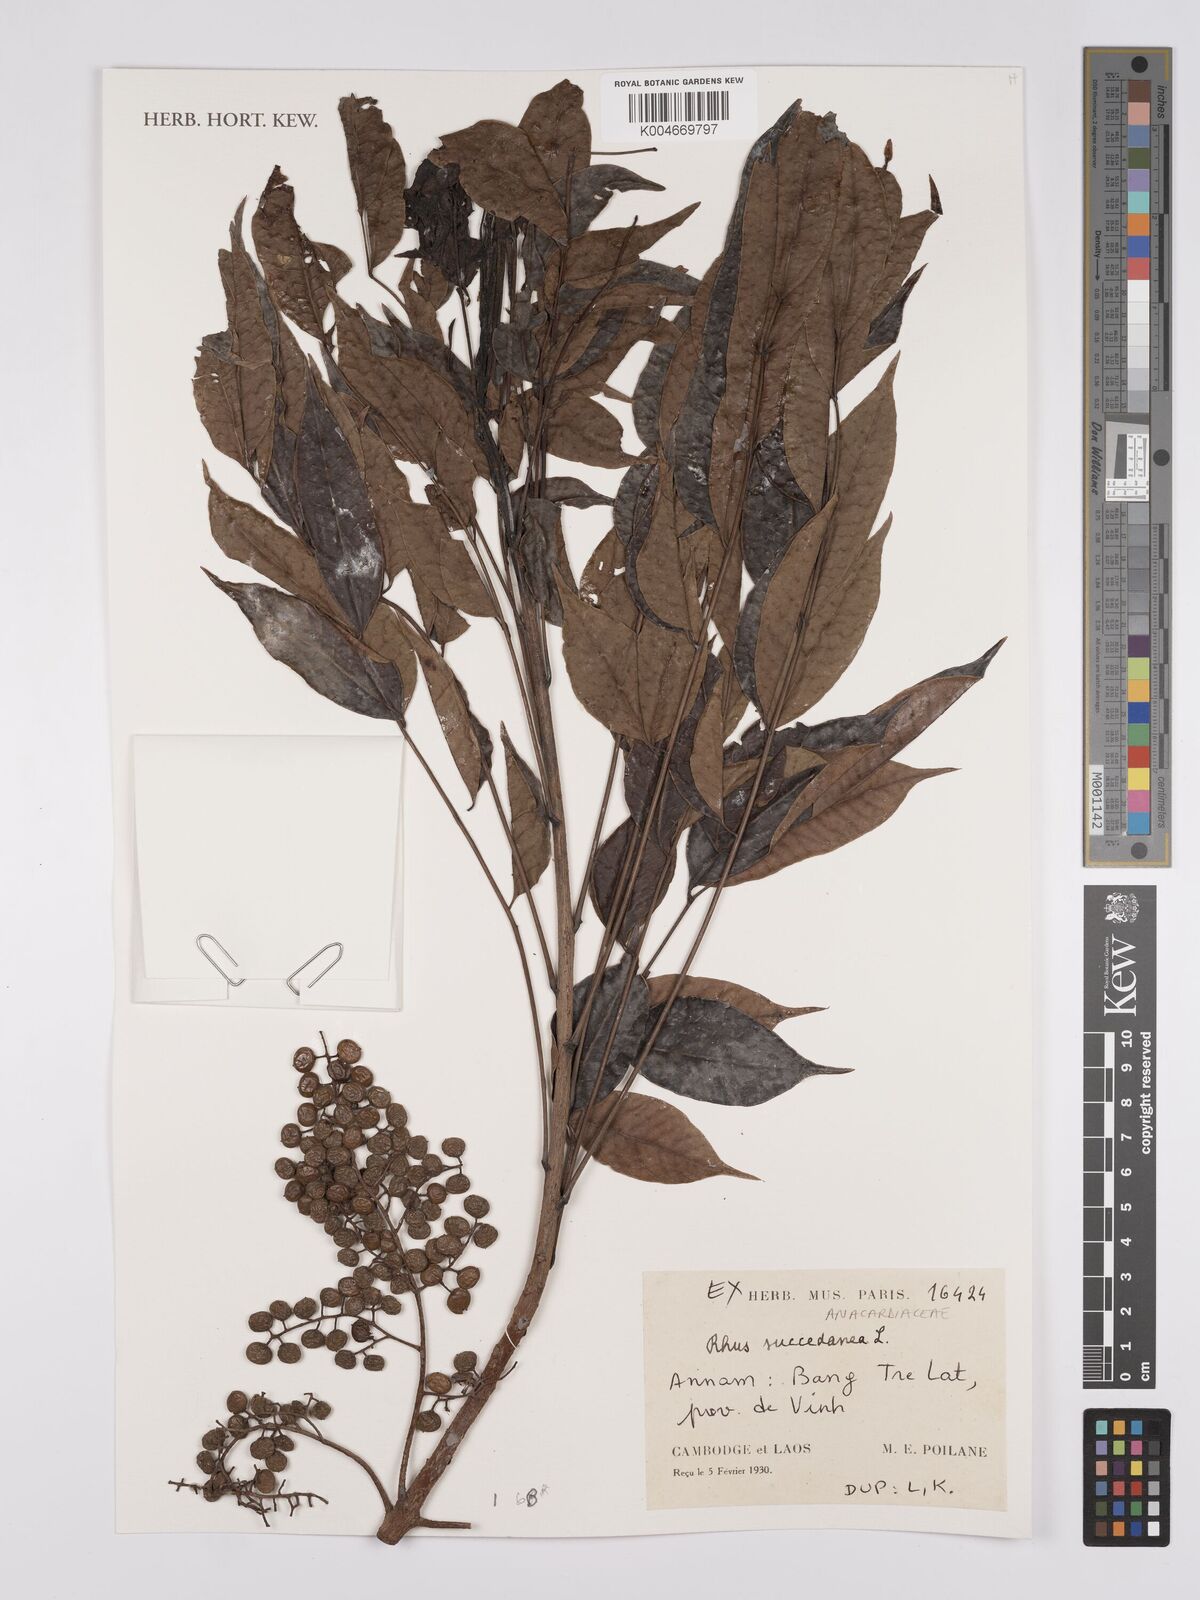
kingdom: Plantae
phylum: Tracheophyta
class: Magnoliopsida
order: Sapindales
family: Anacardiaceae
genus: Toxicodendron
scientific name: Toxicodendron succedaneum
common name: Wax tree
